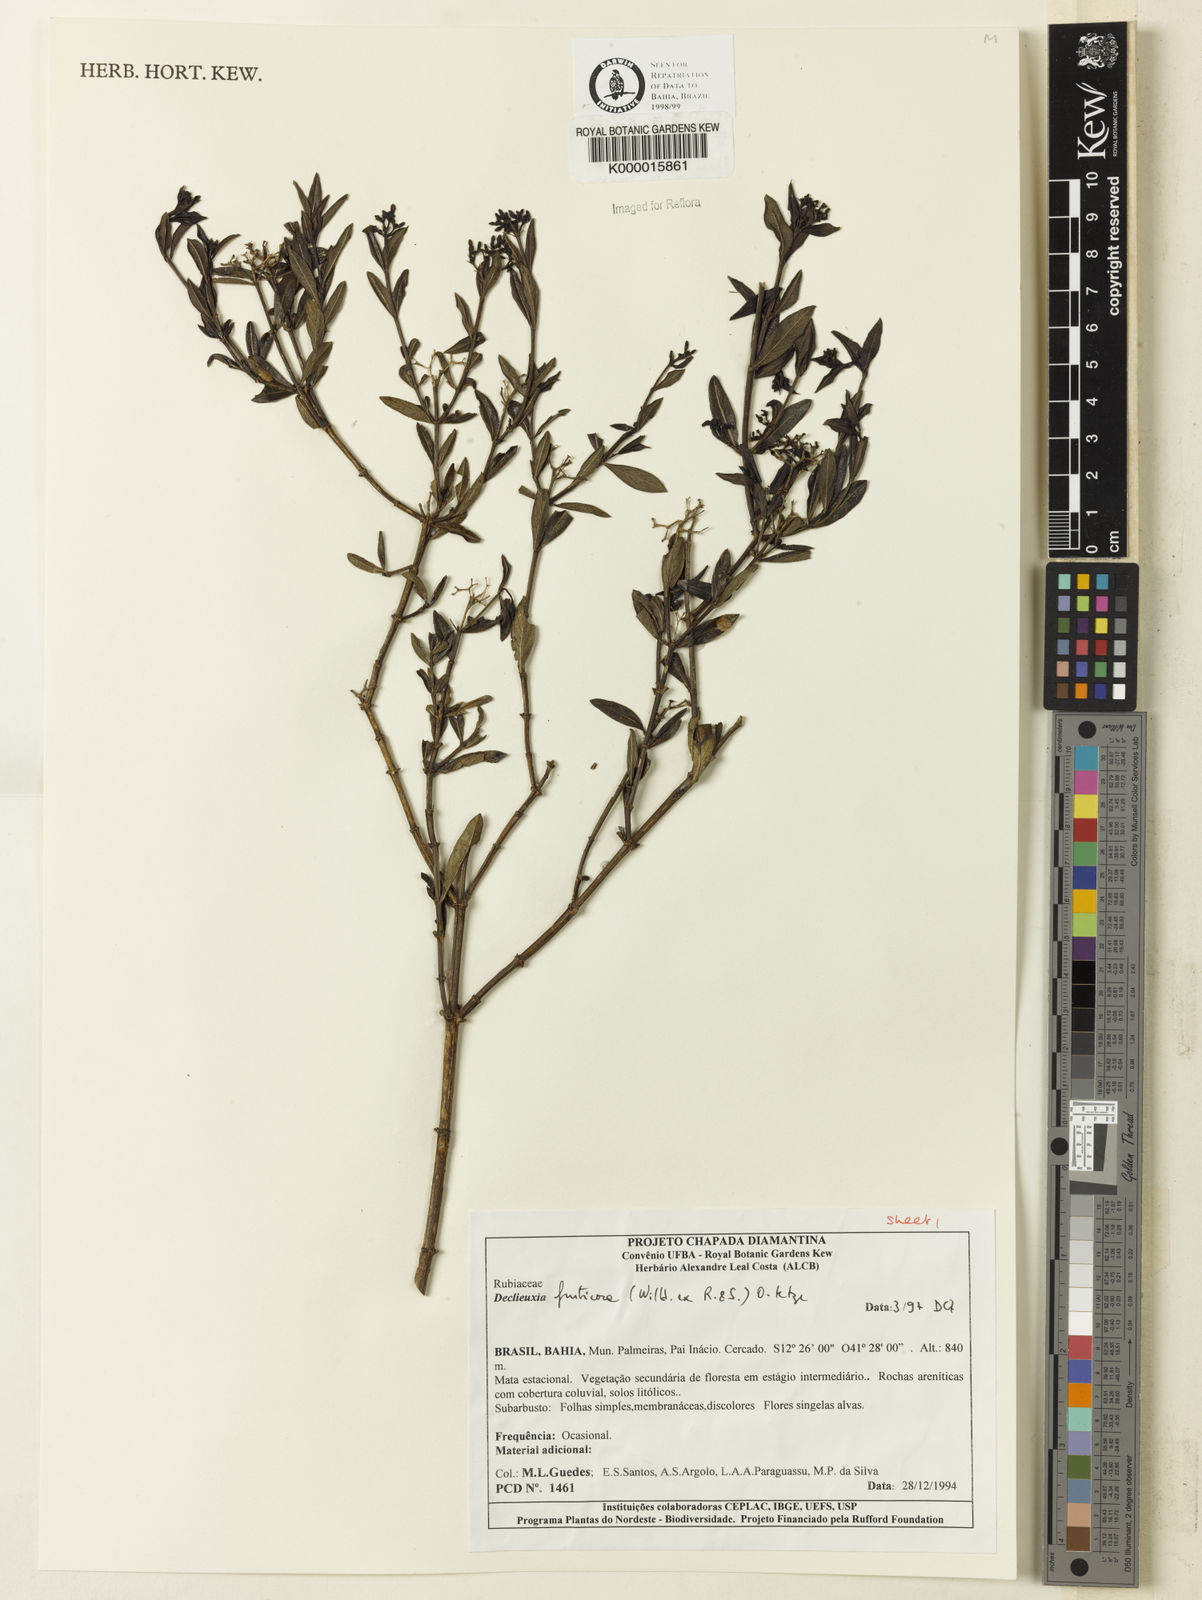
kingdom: Plantae
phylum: Tracheophyta
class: Magnoliopsida
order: Gentianales
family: Rubiaceae
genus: Declieuxia
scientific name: Declieuxia fruticosa
